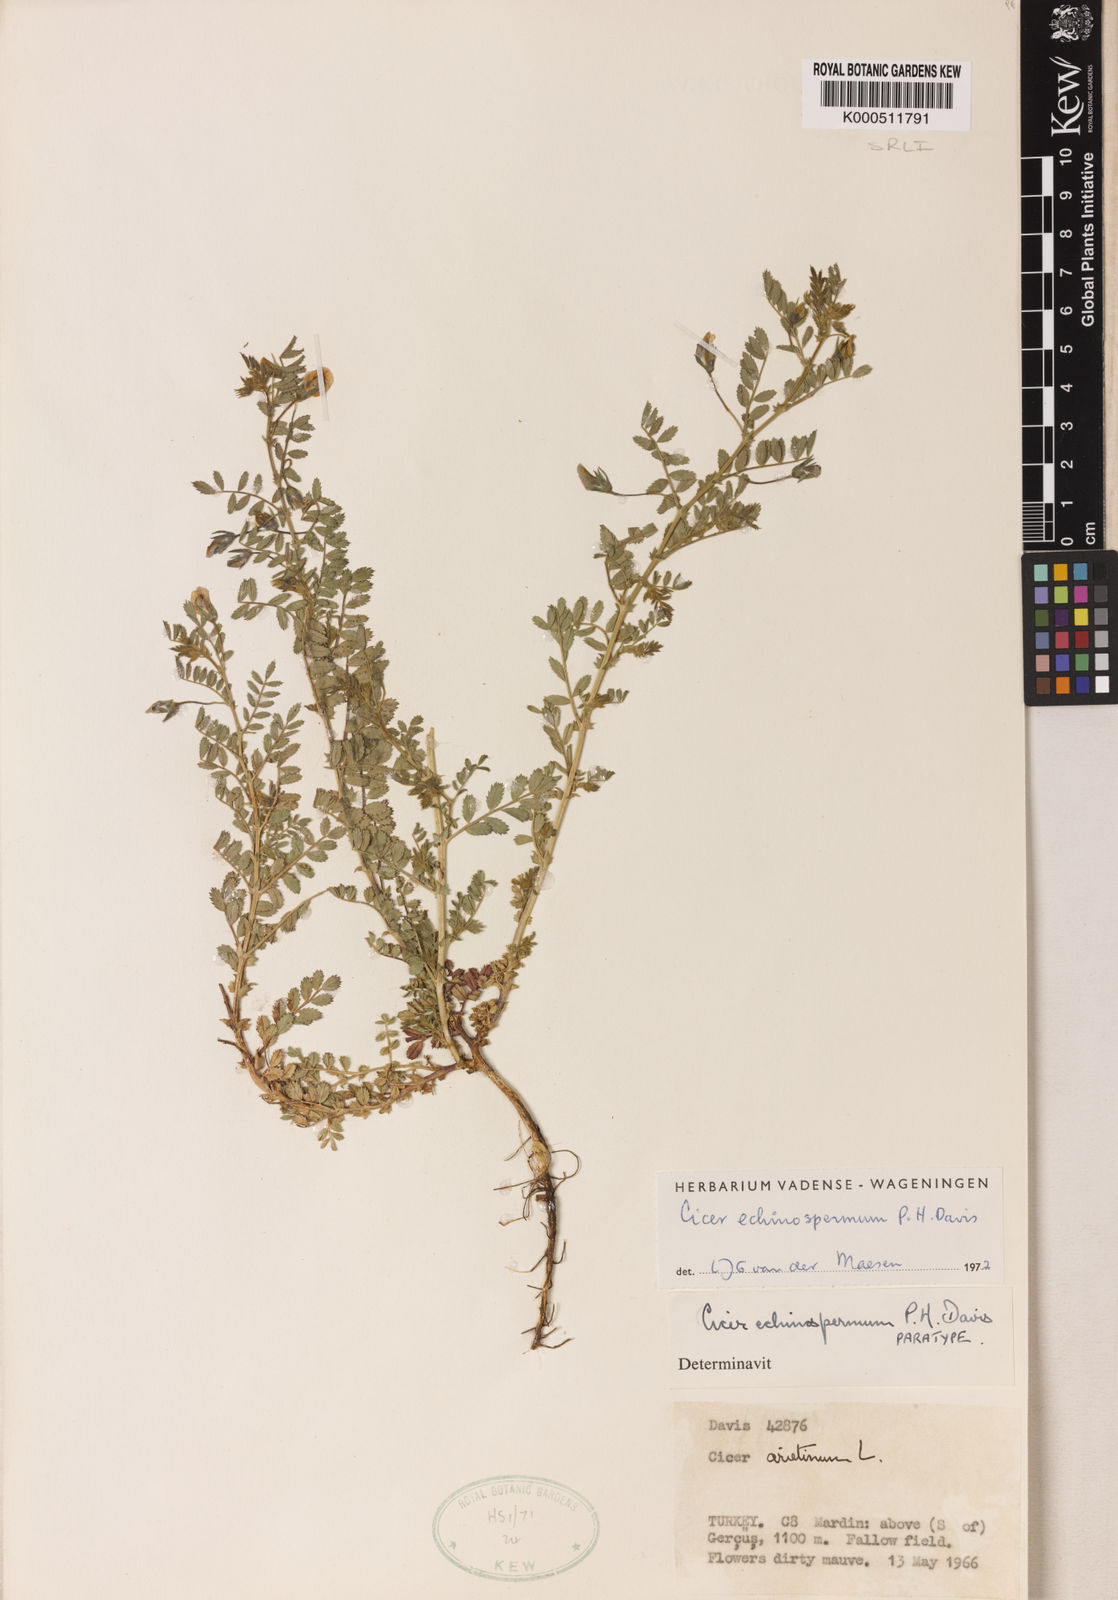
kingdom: Plantae
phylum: Tracheophyta
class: Magnoliopsida
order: Fabales
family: Fabaceae
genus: Cicer
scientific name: Cicer echinospermum
